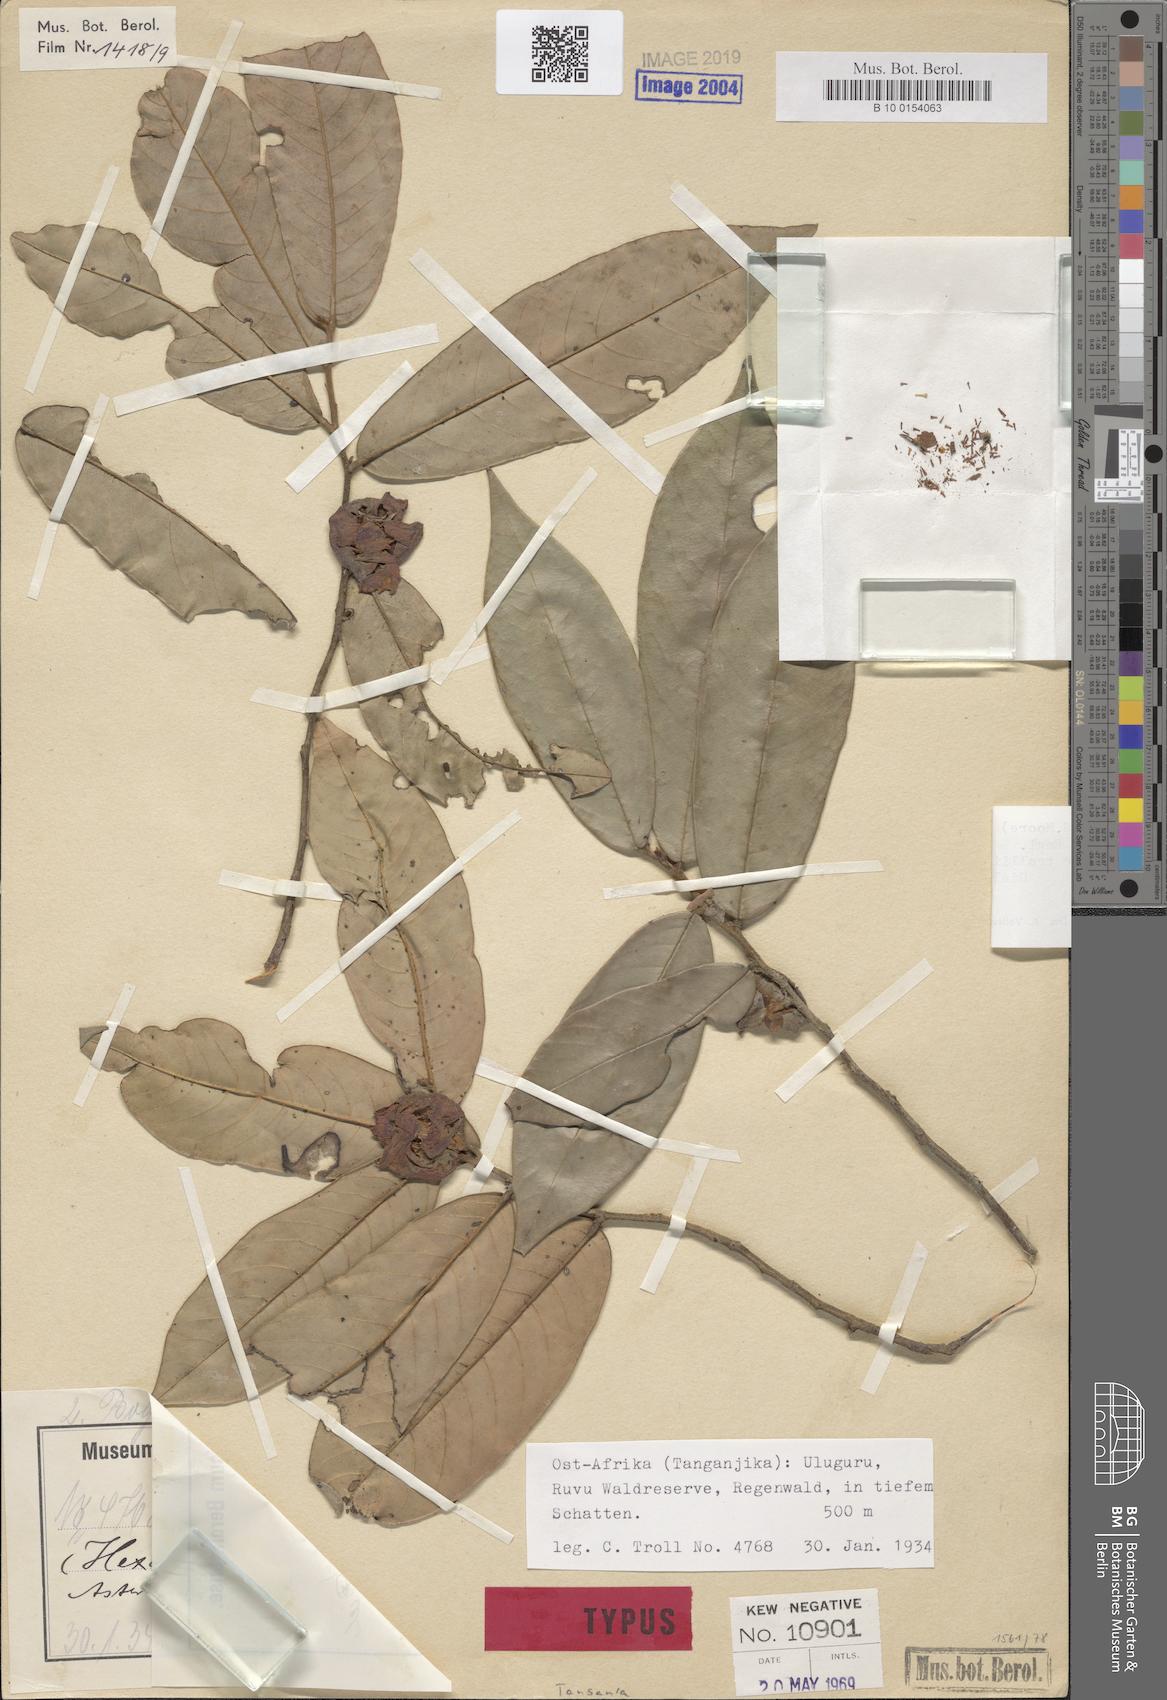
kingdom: Plantae
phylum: Tracheophyta
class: Magnoliopsida
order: Magnoliales
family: Annonaceae
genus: Asteranthe
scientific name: Asteranthe asterias
